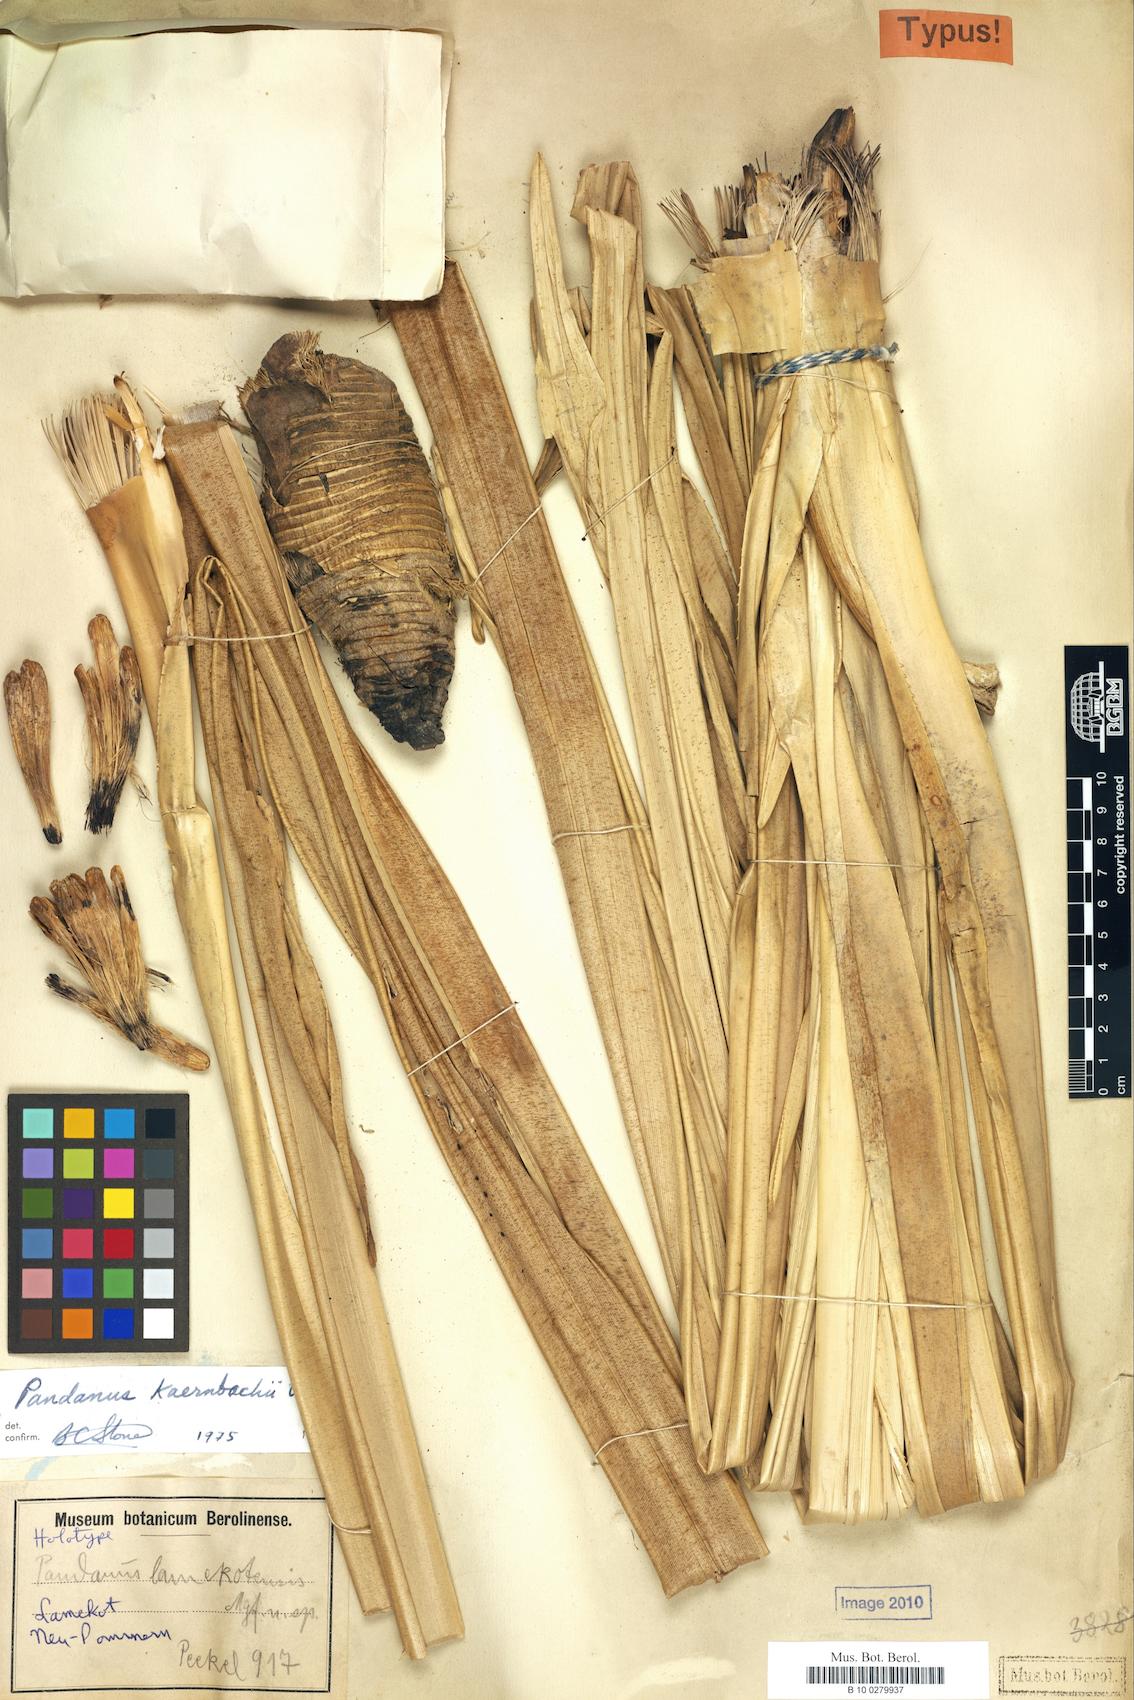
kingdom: Plantae
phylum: Tracheophyta
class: Liliopsida
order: Pandanales
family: Pandanaceae
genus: Pandanus
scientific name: Pandanus kaernbachii
